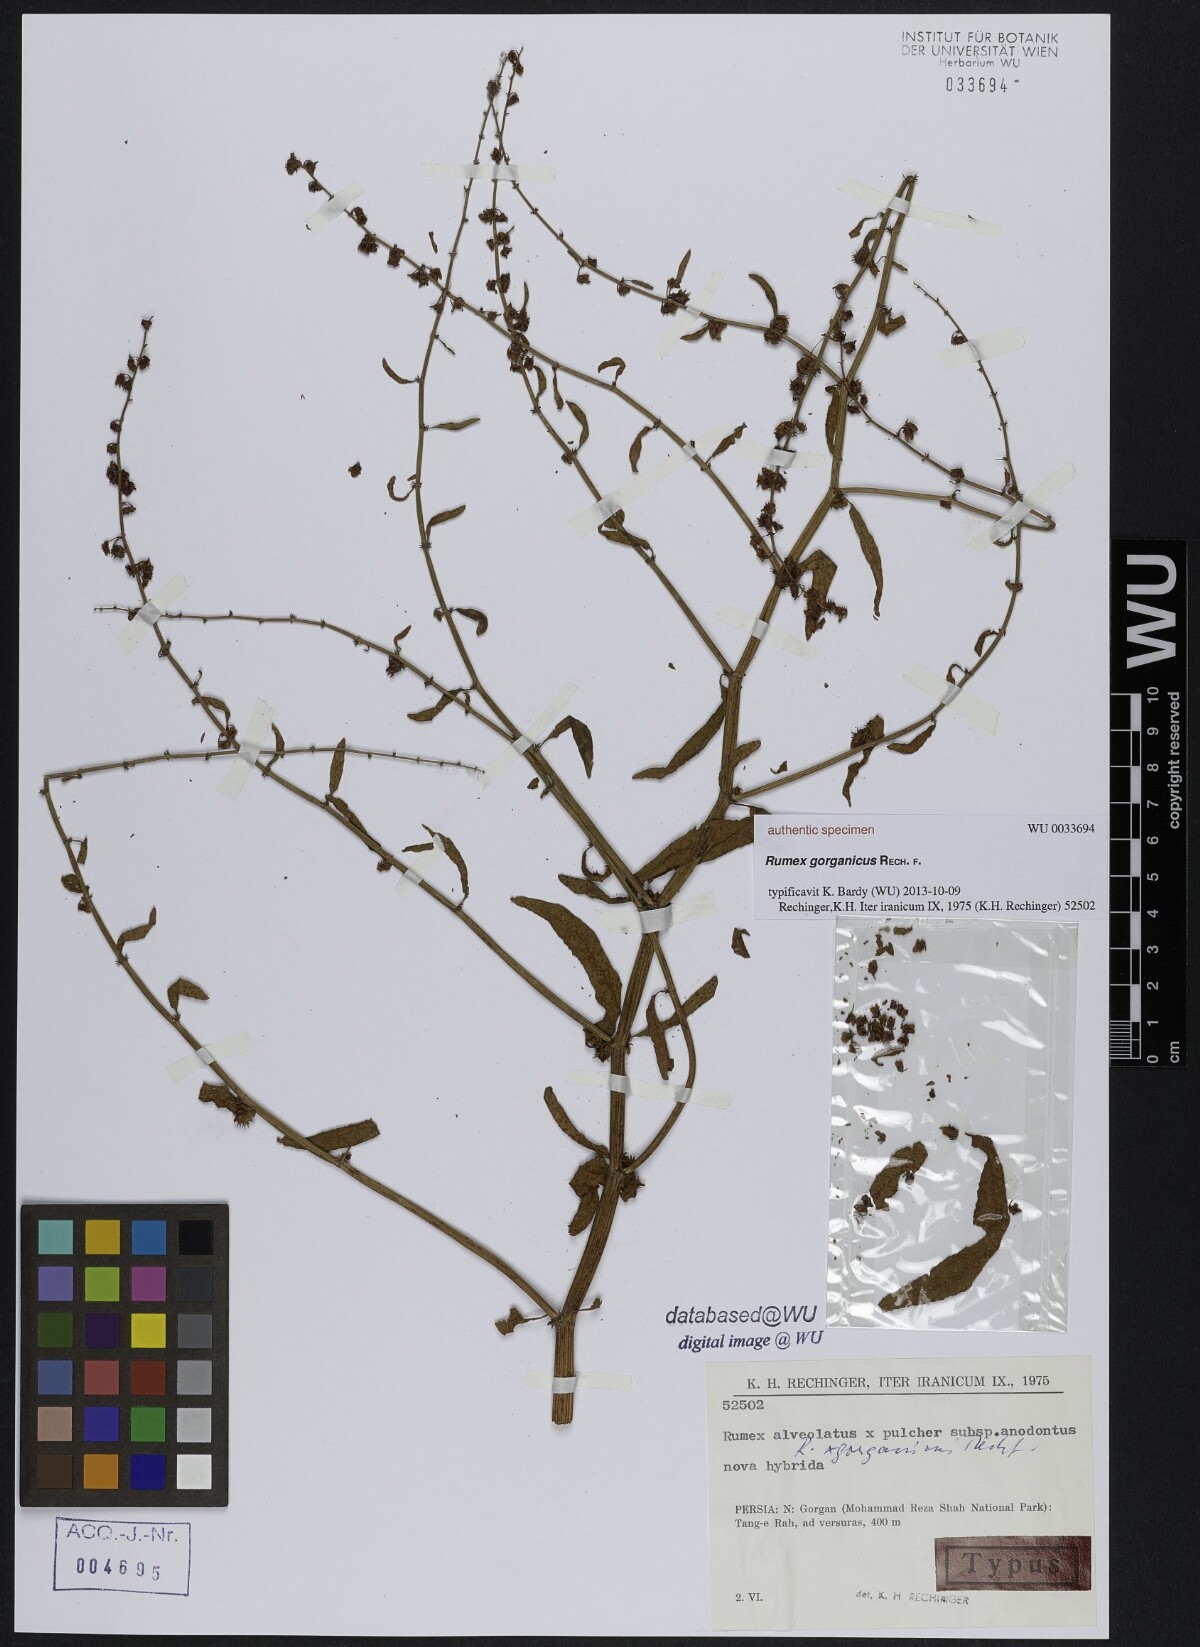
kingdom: Plantae
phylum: Tracheophyta
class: Magnoliopsida
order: Caryophyllales
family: Polygonaceae
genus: Rumex
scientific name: Rumex
